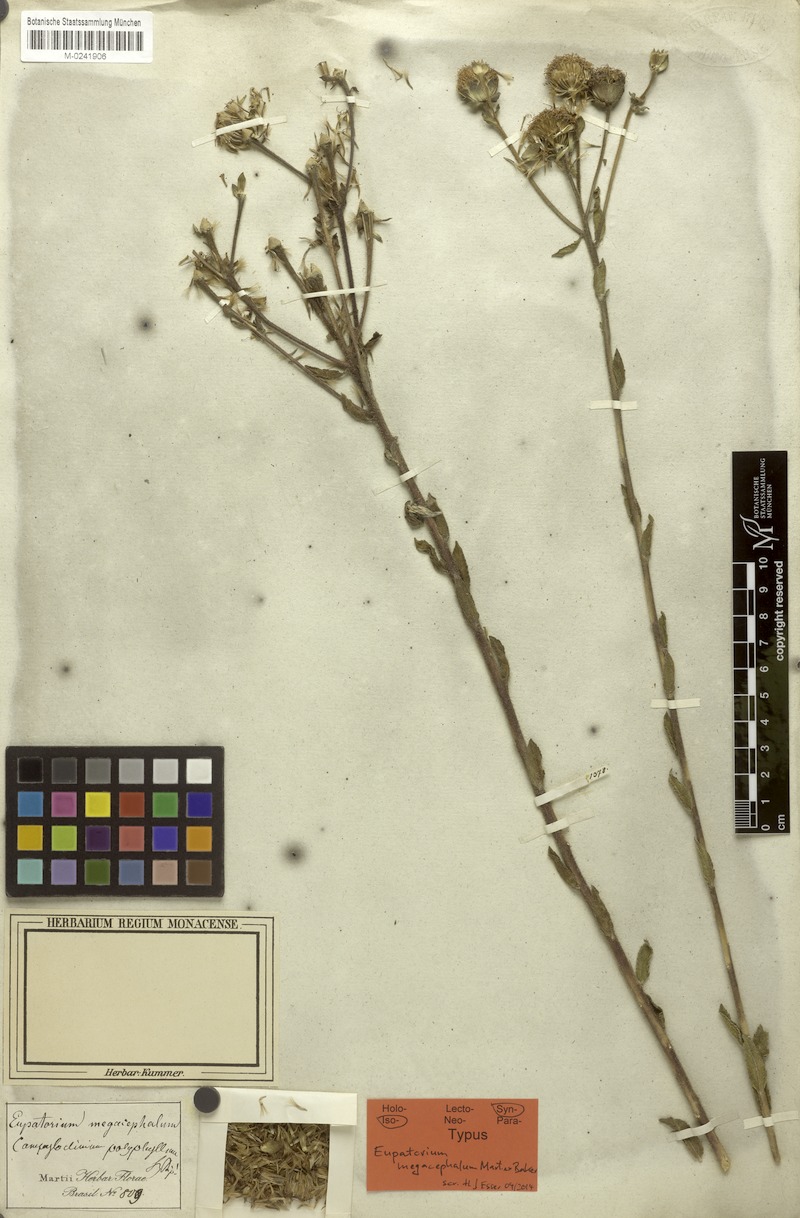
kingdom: Plantae
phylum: Tracheophyta
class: Magnoliopsida
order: Asterales
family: Asteraceae
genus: Campuloclinium
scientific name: Campuloclinium megacephalum
